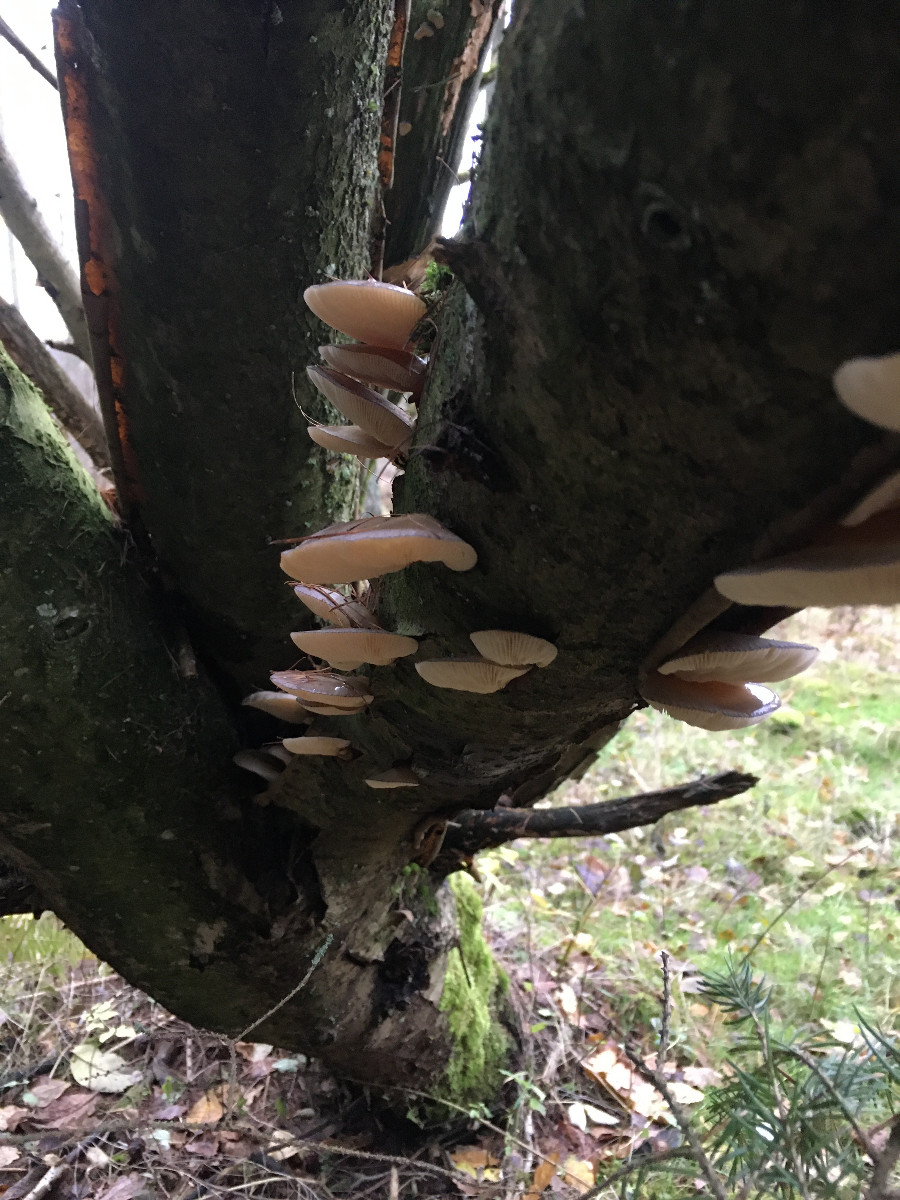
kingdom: Fungi
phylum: Basidiomycota
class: Agaricomycetes
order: Agaricales
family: Sarcomyxaceae
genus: Sarcomyxa
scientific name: Sarcomyxa serotina
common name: gummihat
